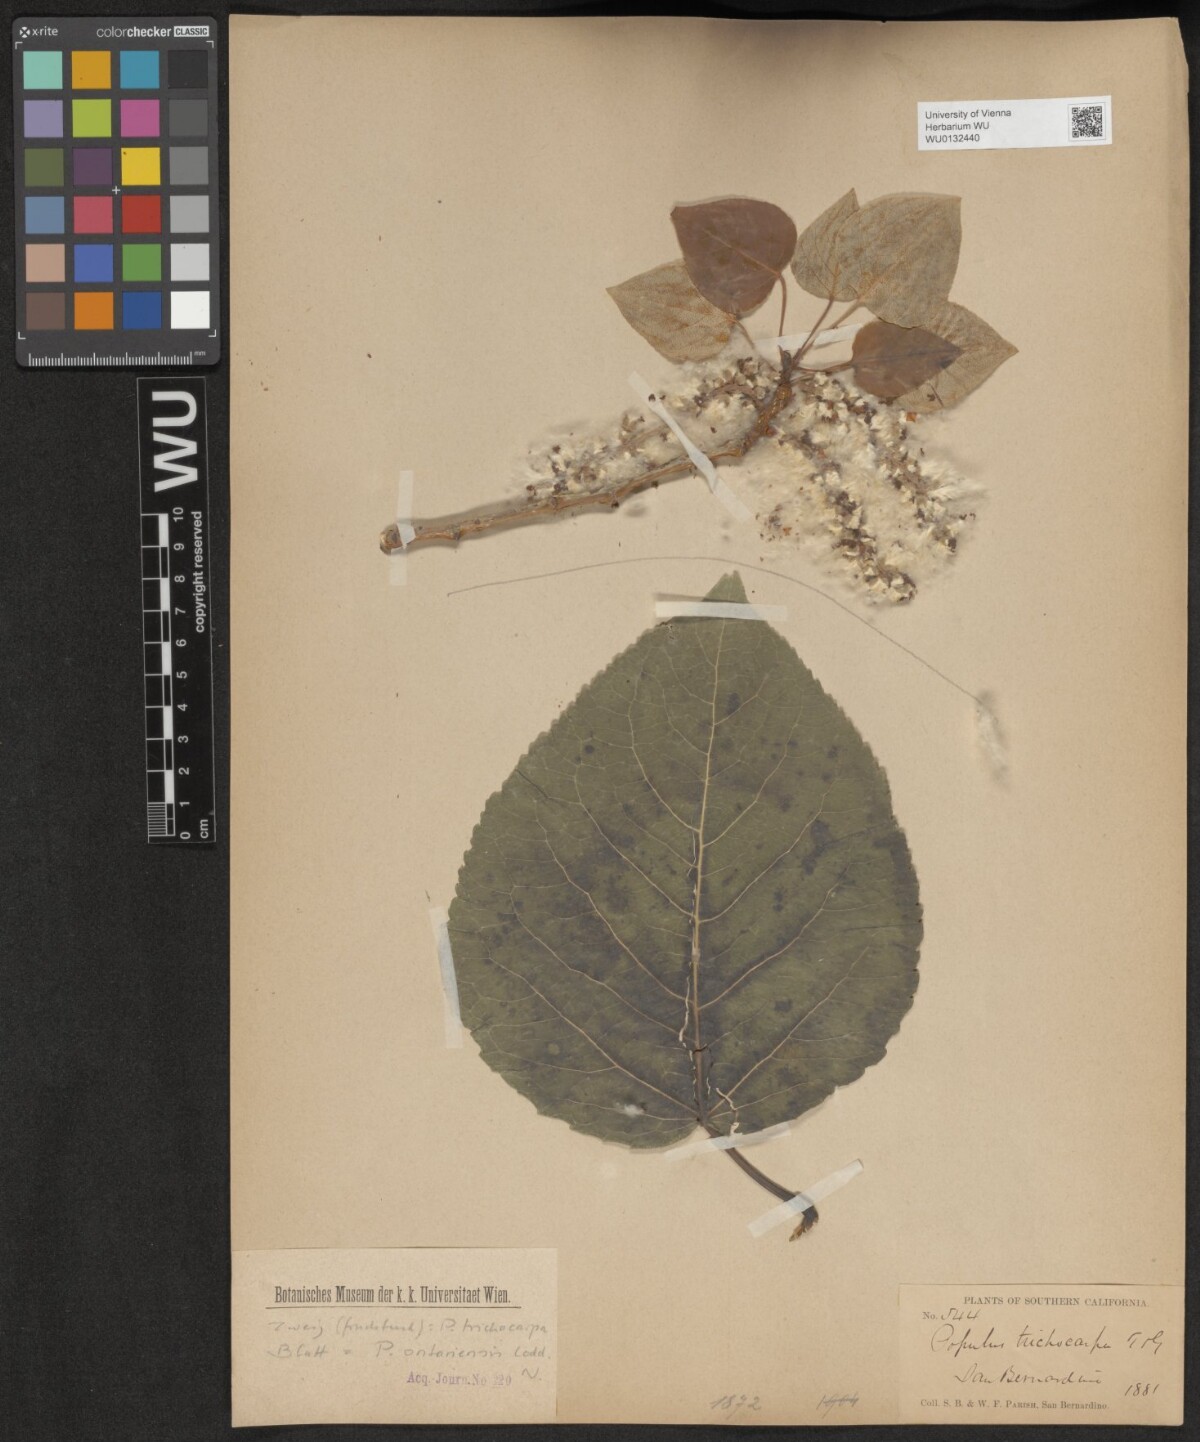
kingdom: Plantae
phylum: Tracheophyta
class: Magnoliopsida
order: Malpighiales
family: Salicaceae
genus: Populus
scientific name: Populus trichocarpa
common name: Black cottonwood
